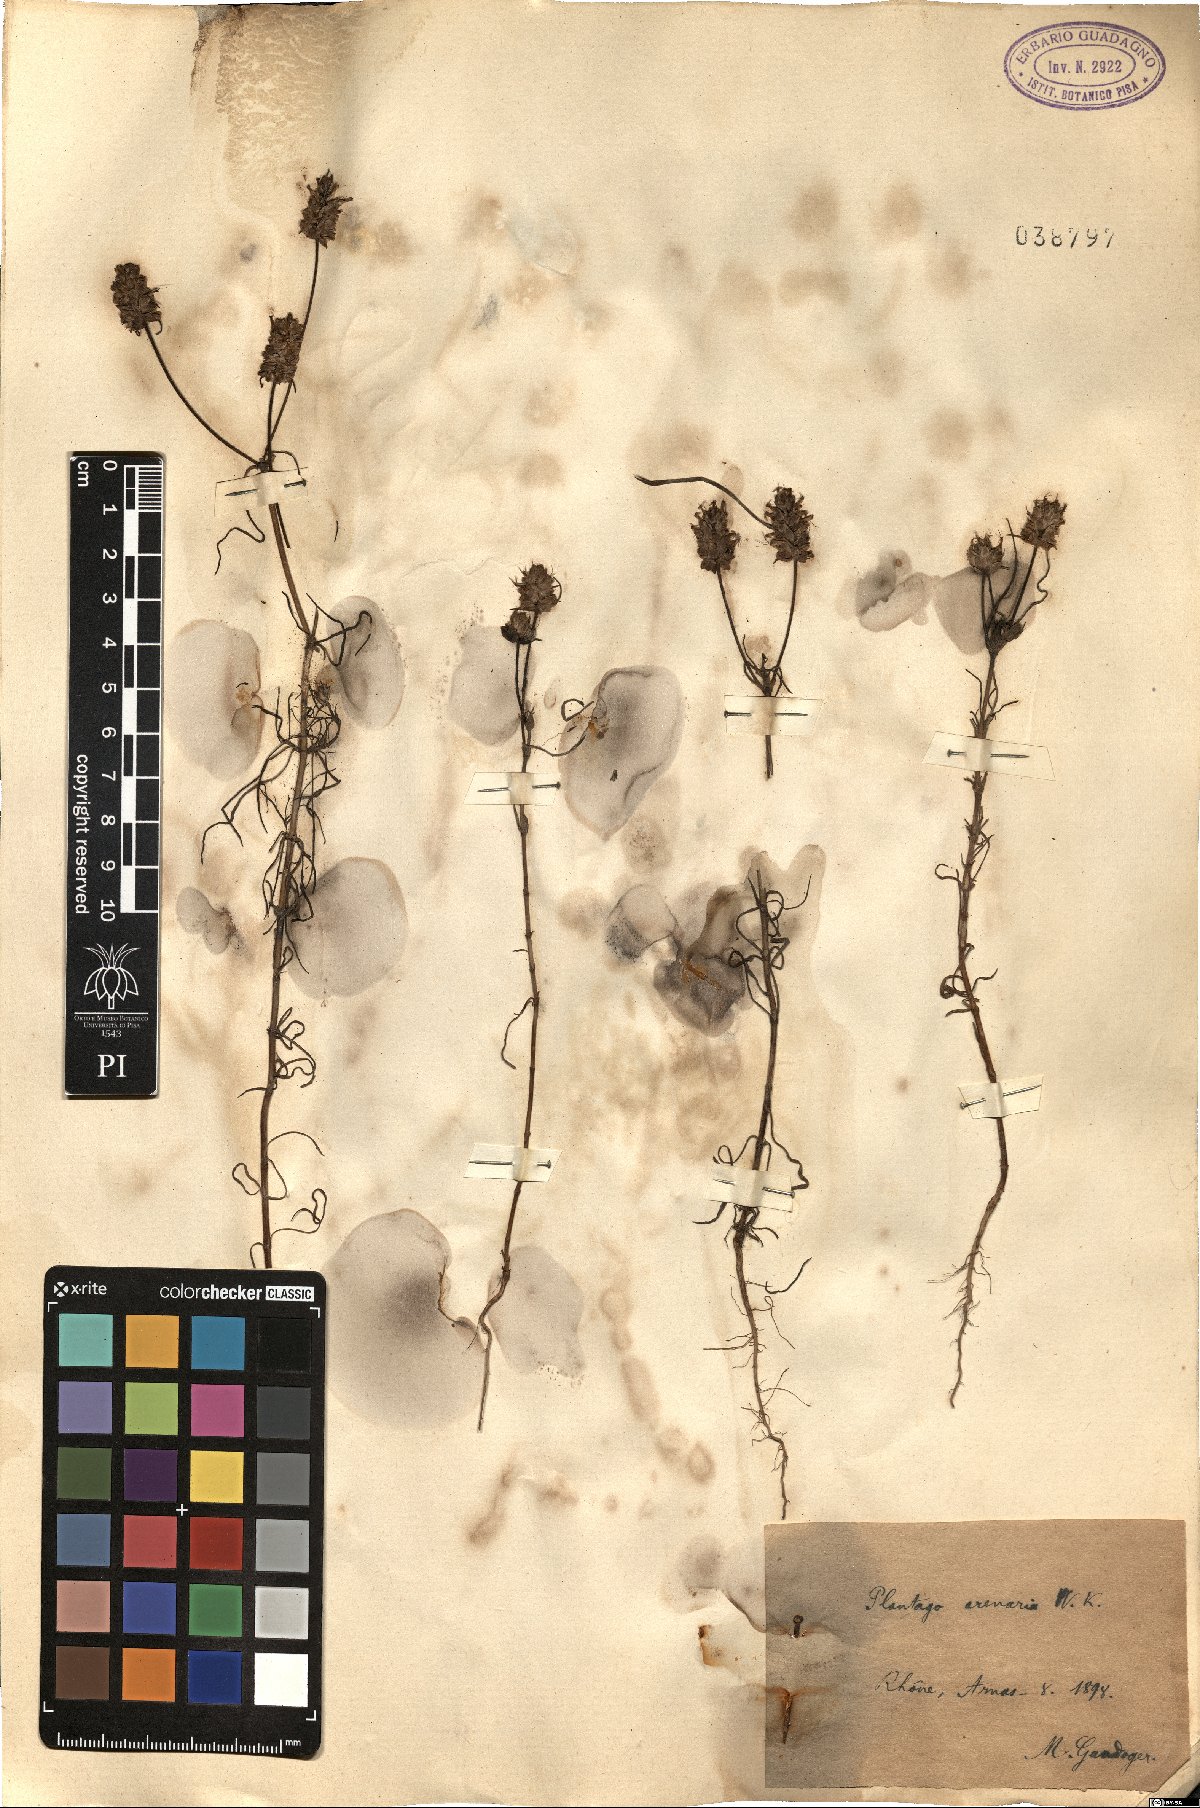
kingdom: Plantae
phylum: Tracheophyta
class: Magnoliopsida
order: Lamiales
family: Plantaginaceae
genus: Plantago
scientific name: Plantago arenaria
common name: Branched plantain
